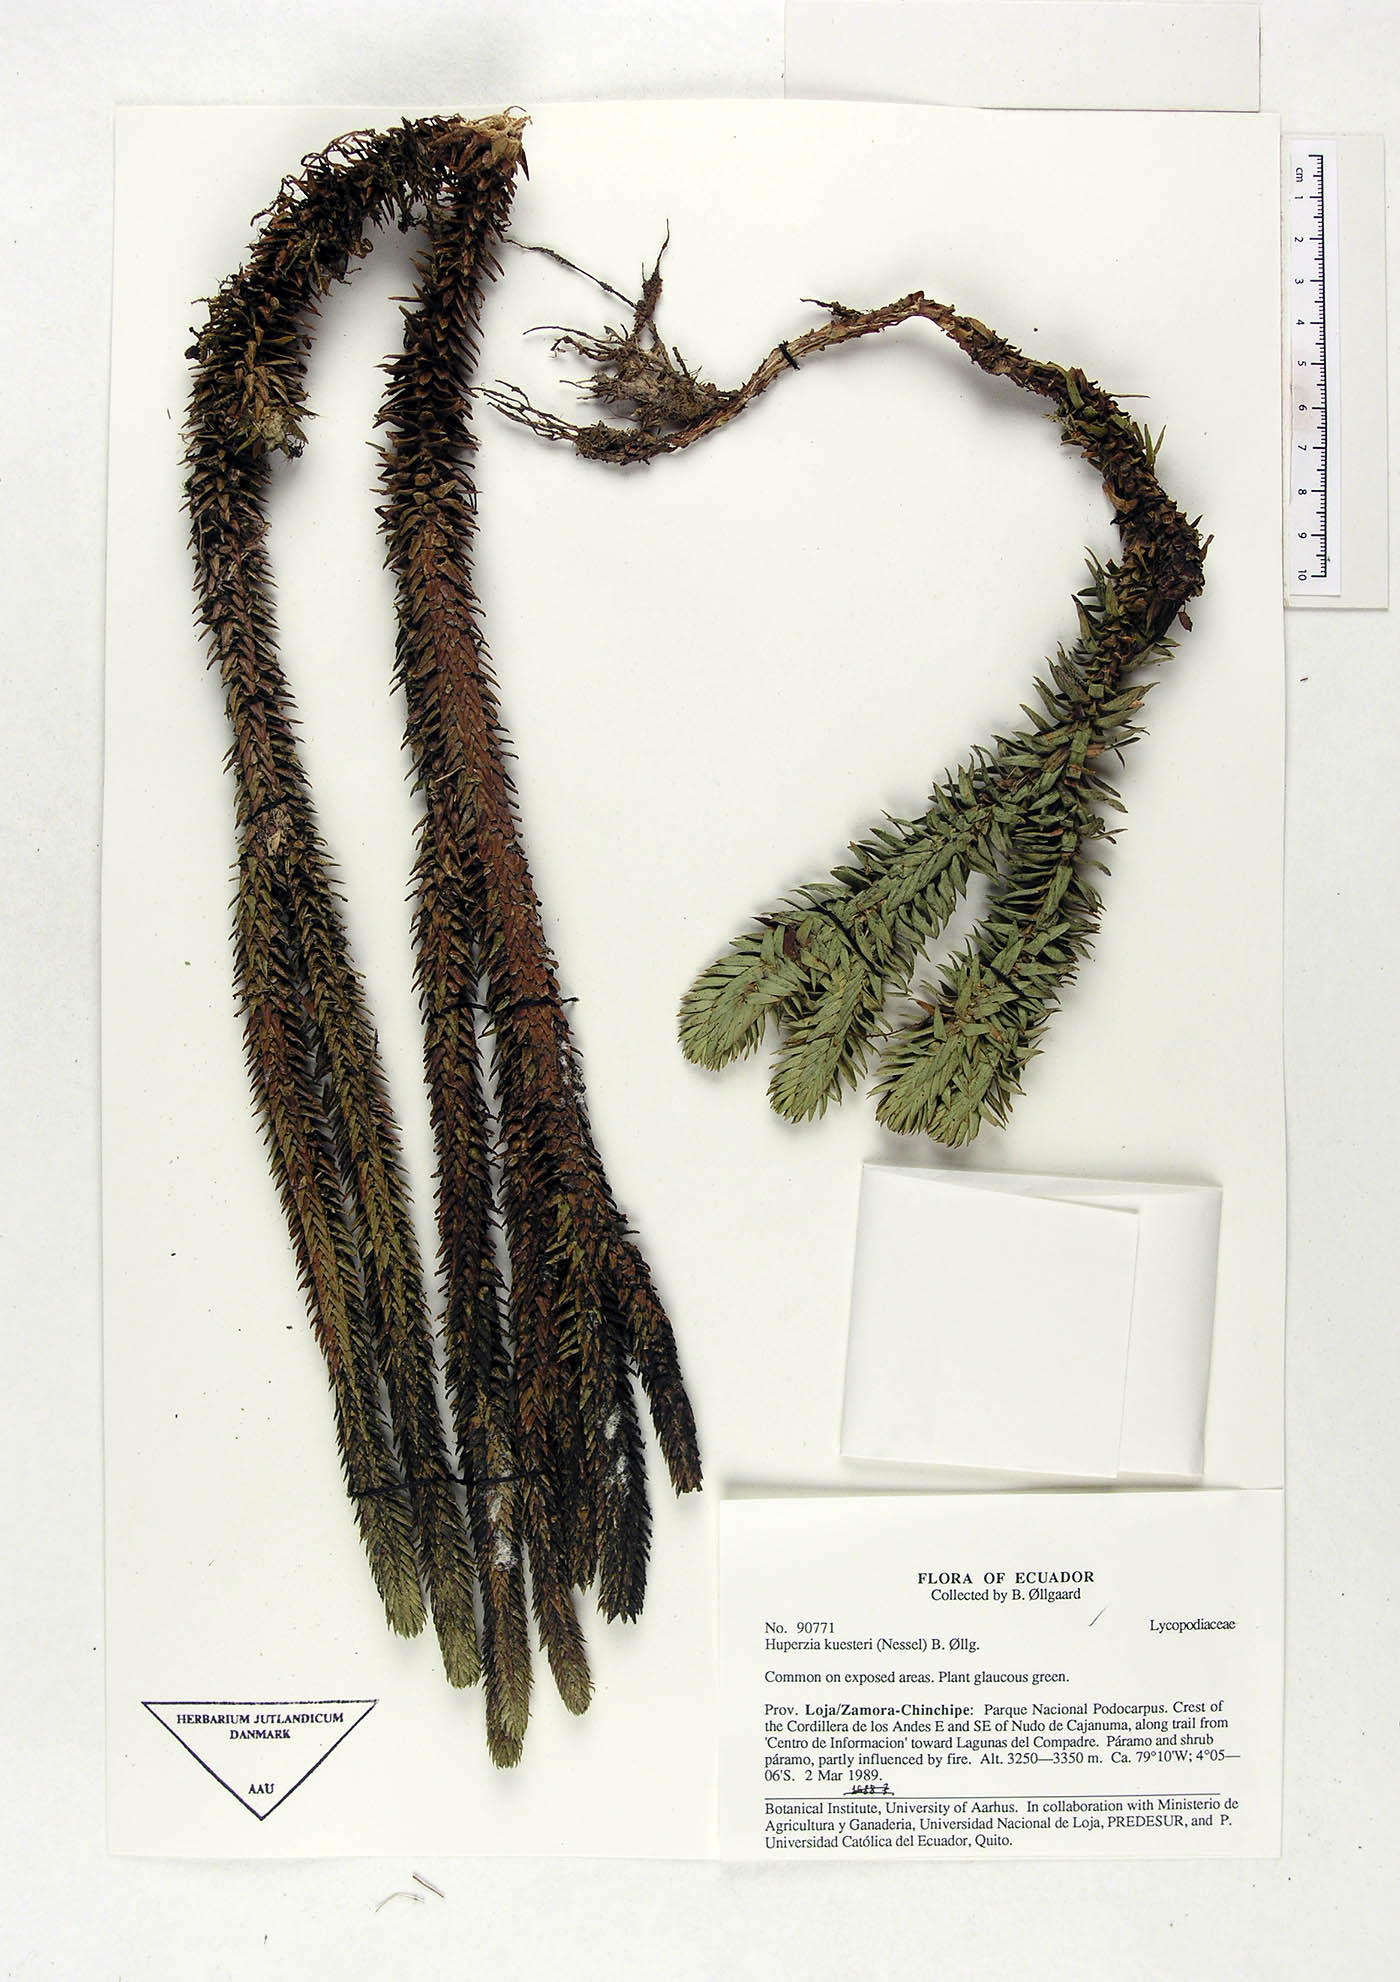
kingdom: Plantae
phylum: Tracheophyta
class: Lycopodiopsida
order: Lycopodiales
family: Lycopodiaceae
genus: Phlegmariurus
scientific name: Phlegmariurus kuesteri
